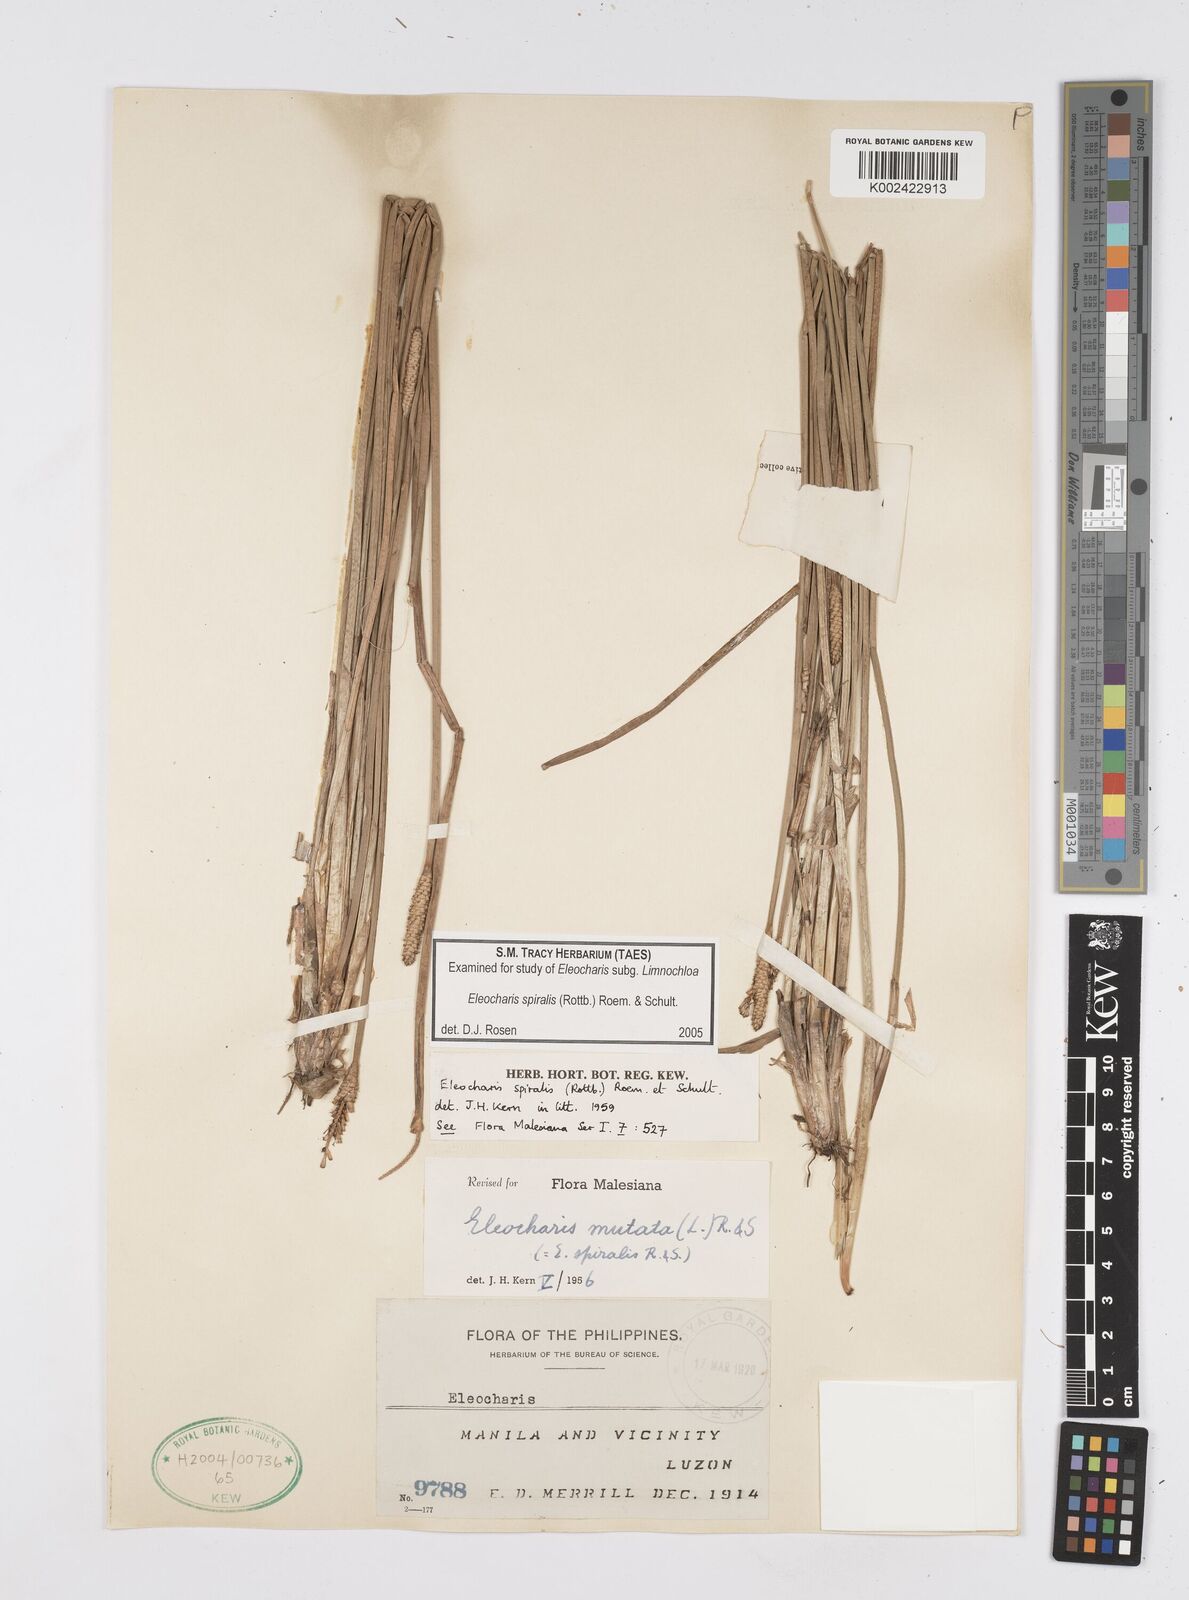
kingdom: Plantae
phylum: Tracheophyta
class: Liliopsida
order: Poales
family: Cyperaceae
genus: Eleocharis
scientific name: Eleocharis spiralis
